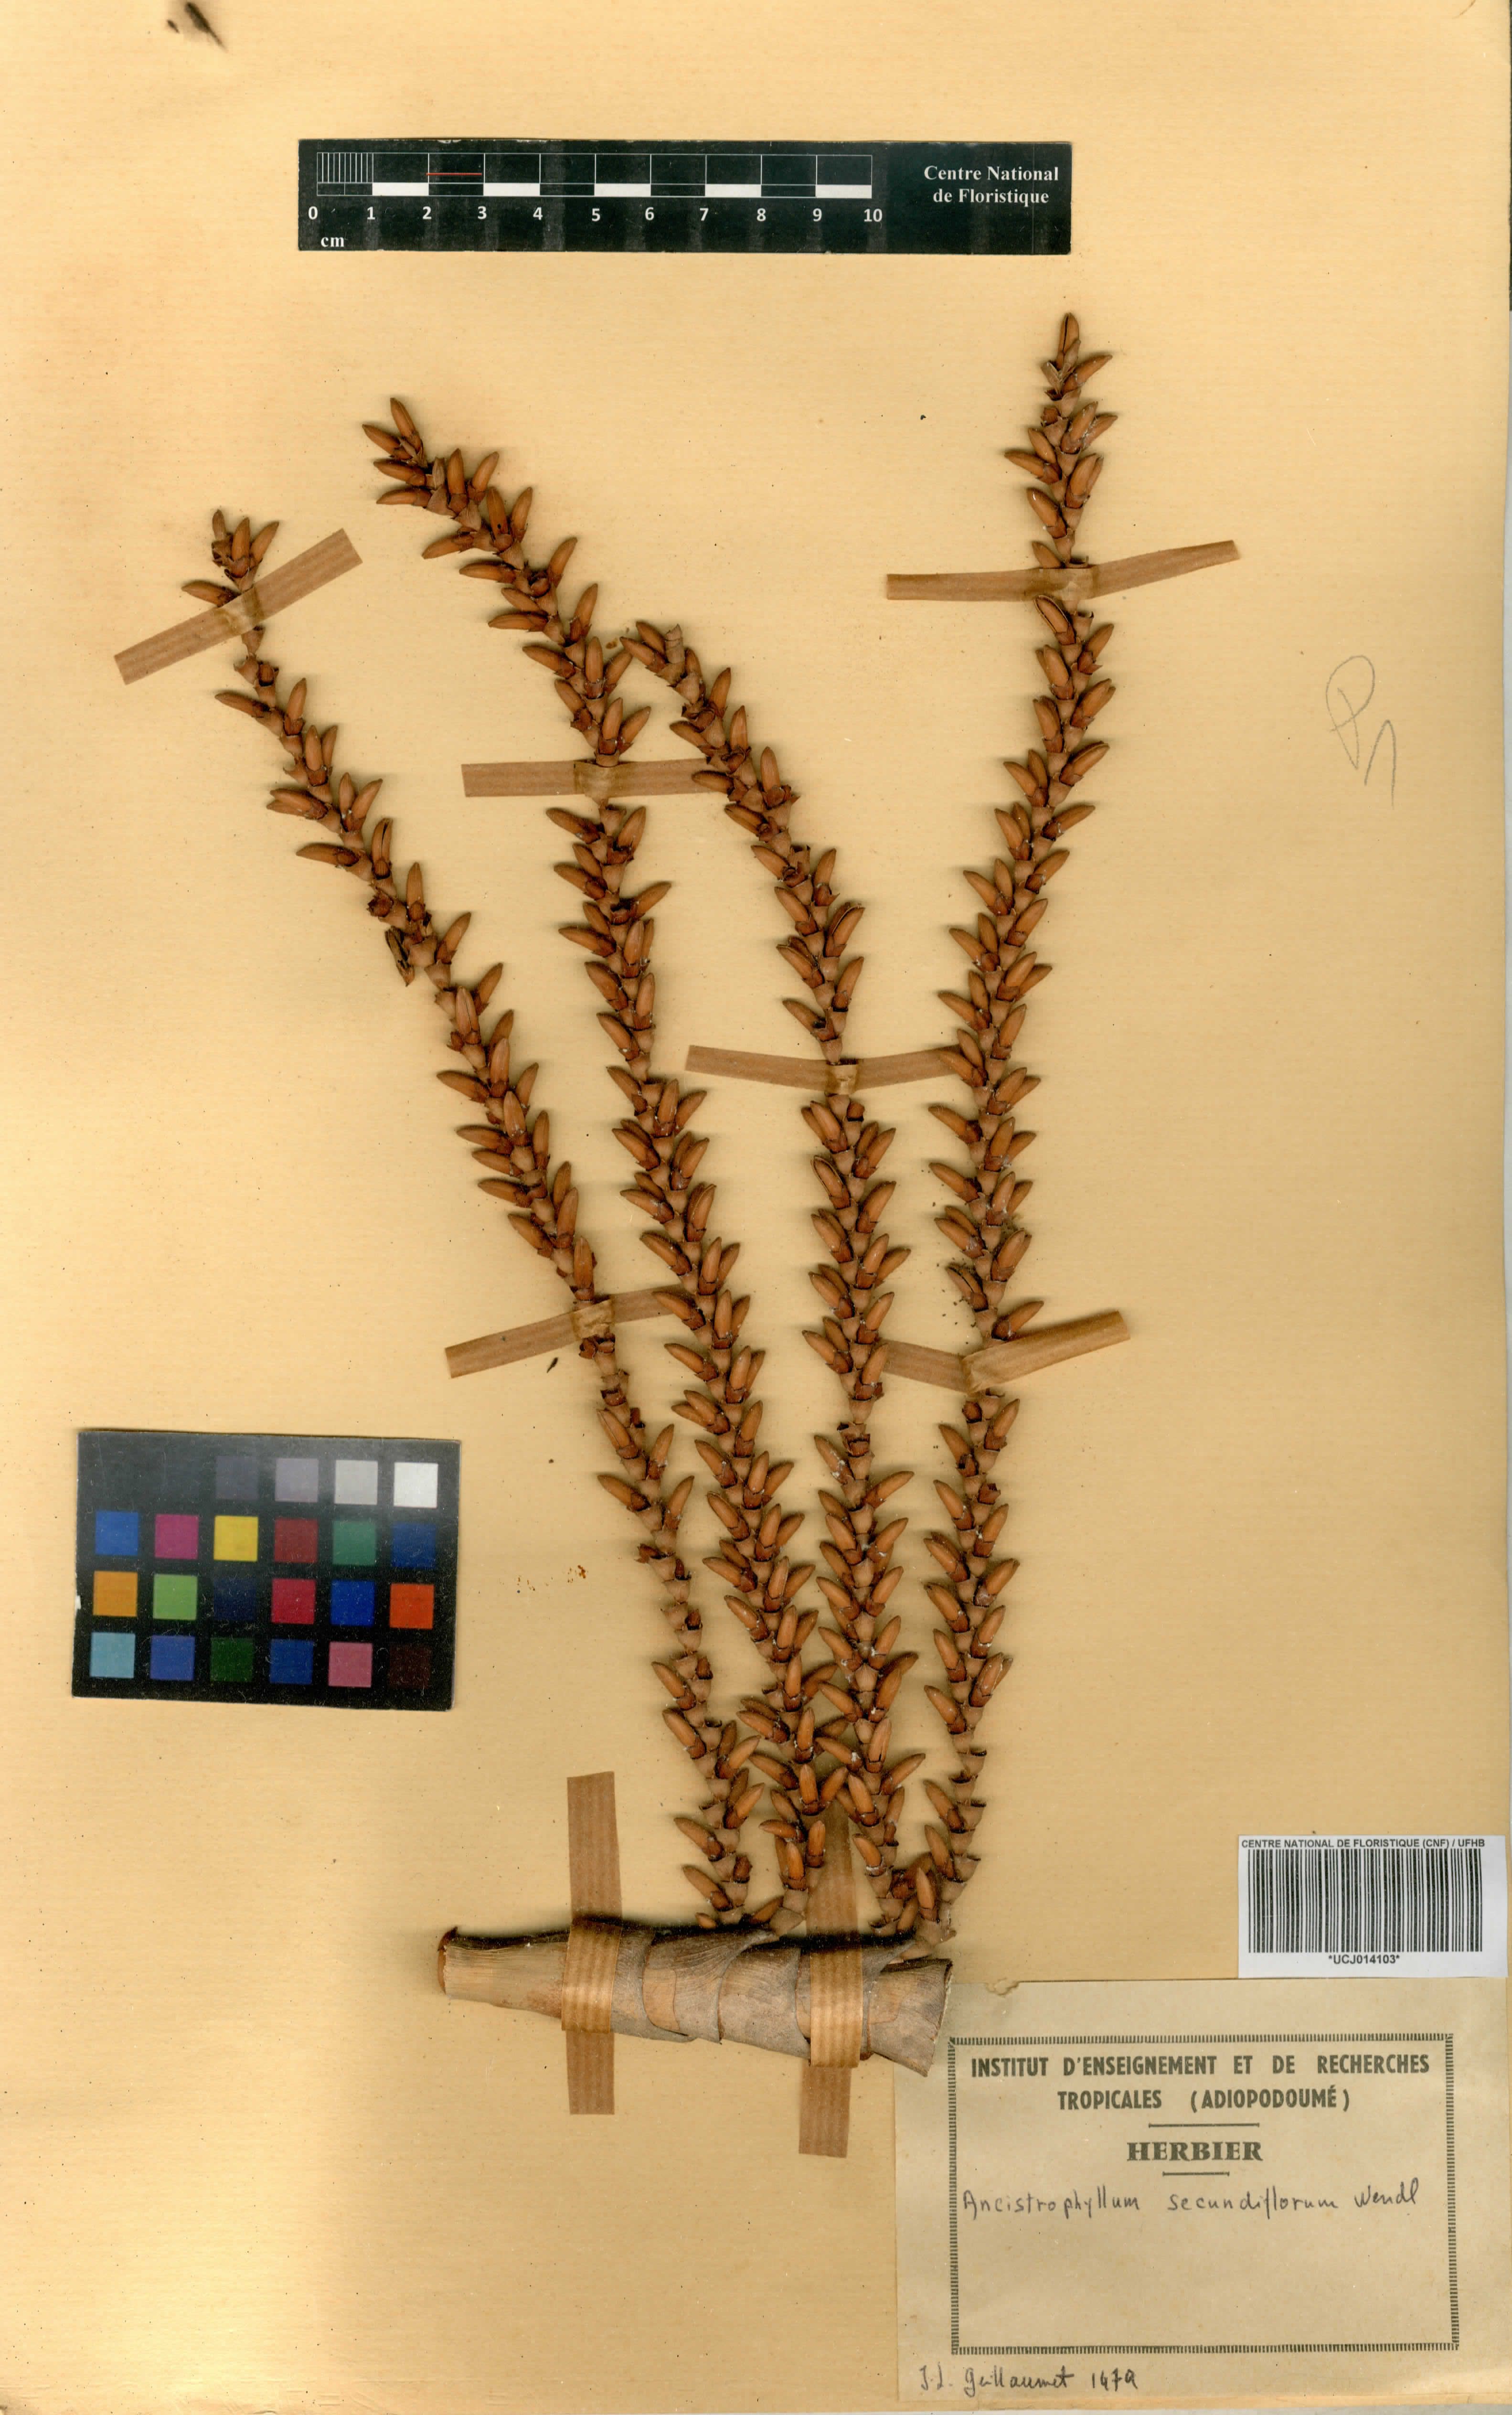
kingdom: Plantae
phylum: Tracheophyta
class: Liliopsida
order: Arecales
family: Arecaceae
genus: Laccosperma
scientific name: Laccosperma secundiflorum
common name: Rattan
